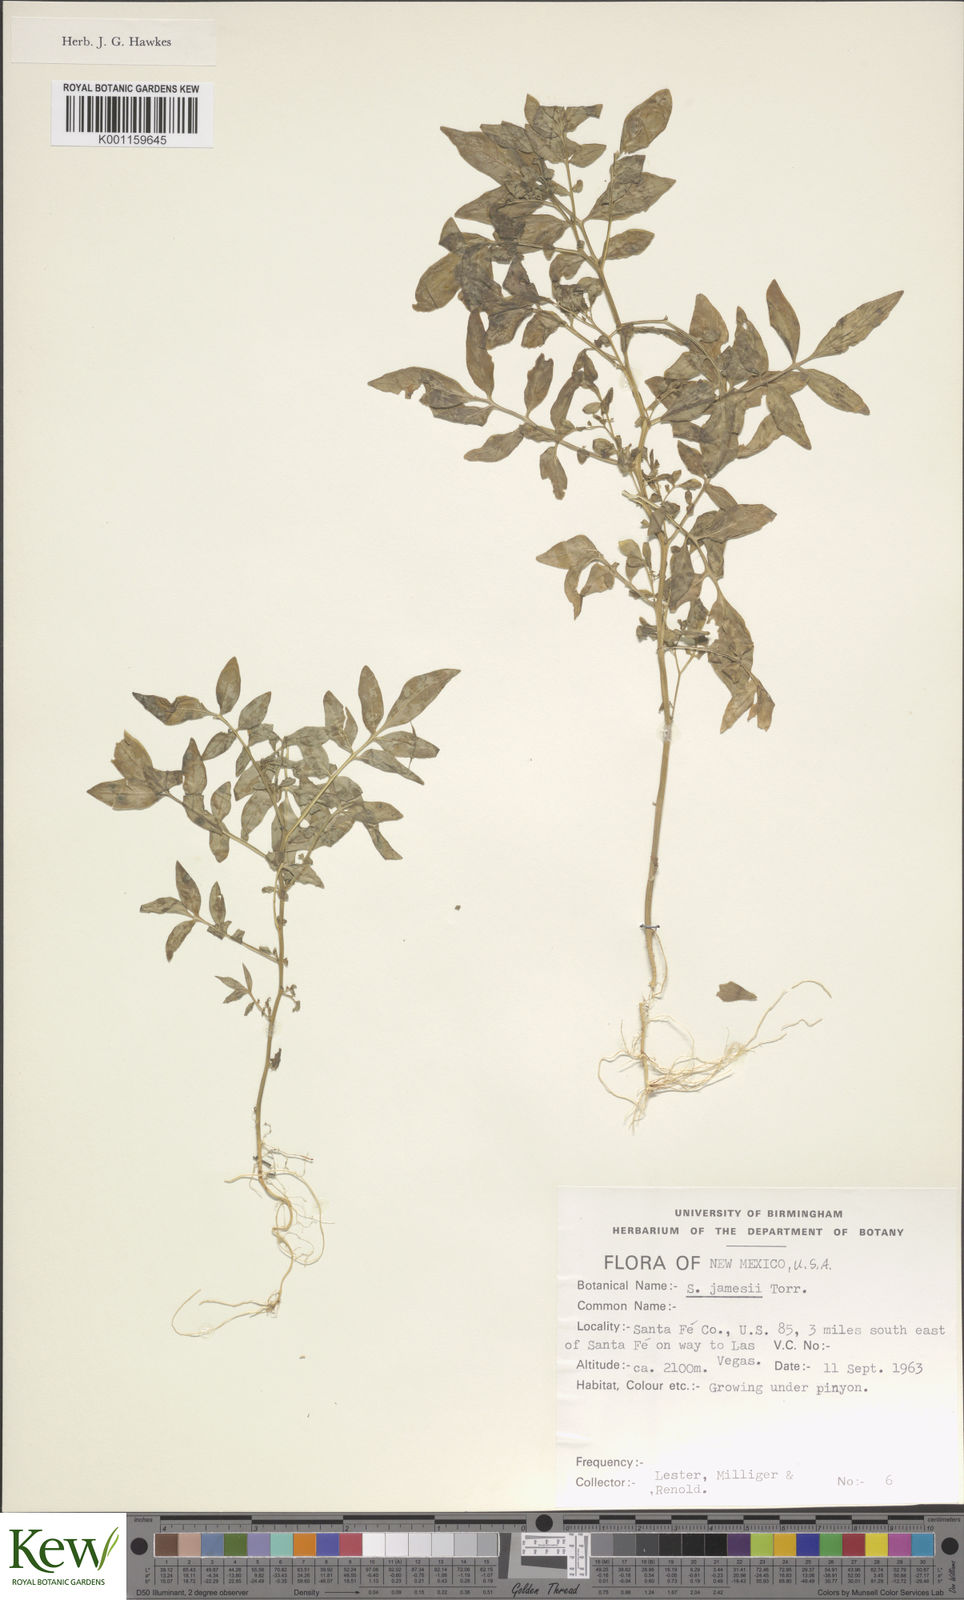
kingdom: Plantae
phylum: Tracheophyta
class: Magnoliopsida
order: Solanales
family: Solanaceae
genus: Solanum
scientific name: Solanum jamesii
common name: Wild potato
